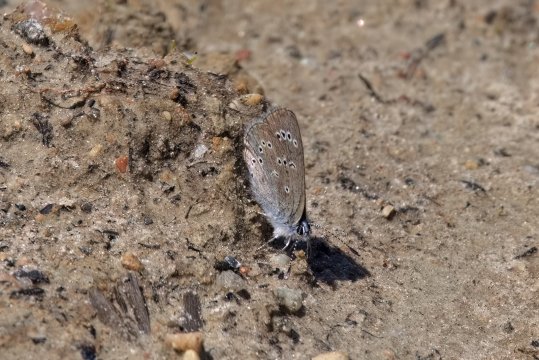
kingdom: Animalia
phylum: Arthropoda
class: Insecta
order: Lepidoptera
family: Lycaenidae
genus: Glaucopsyche
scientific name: Glaucopsyche lygdamus
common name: Silvery Blue
